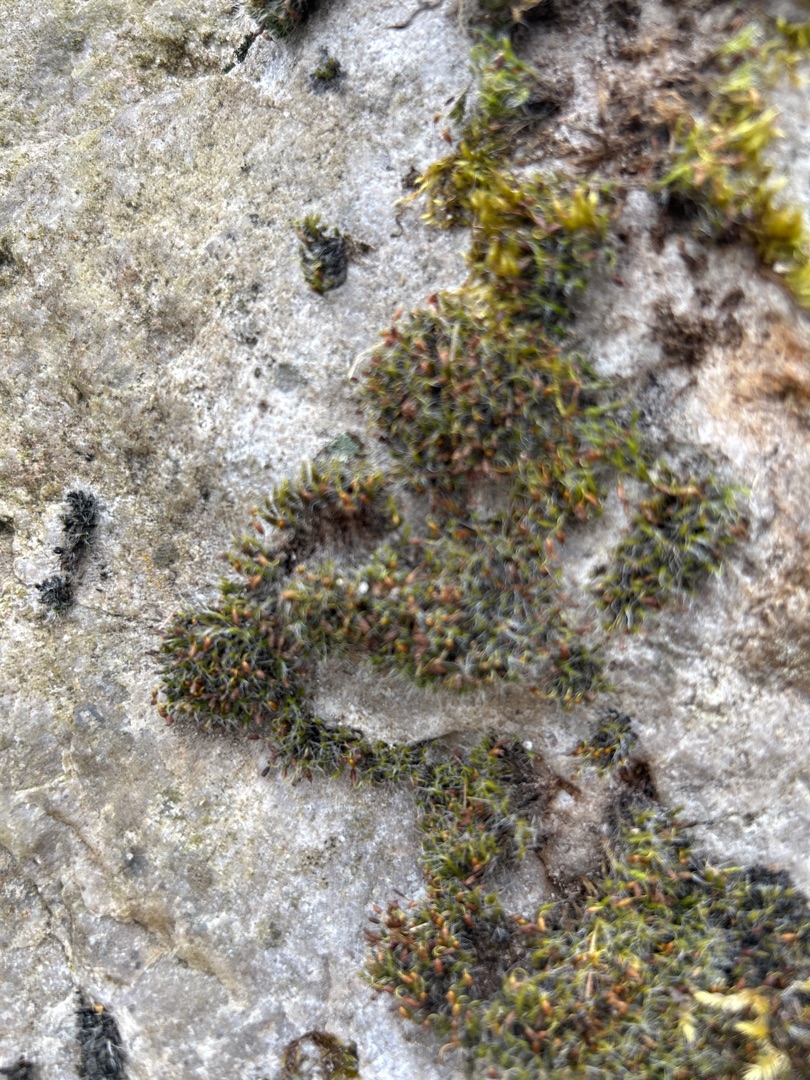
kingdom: Plantae
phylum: Bryophyta
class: Bryopsida
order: Grimmiales
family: Grimmiaceae
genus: Grimmia
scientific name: Grimmia pulvinata
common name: Pude-gråmos
